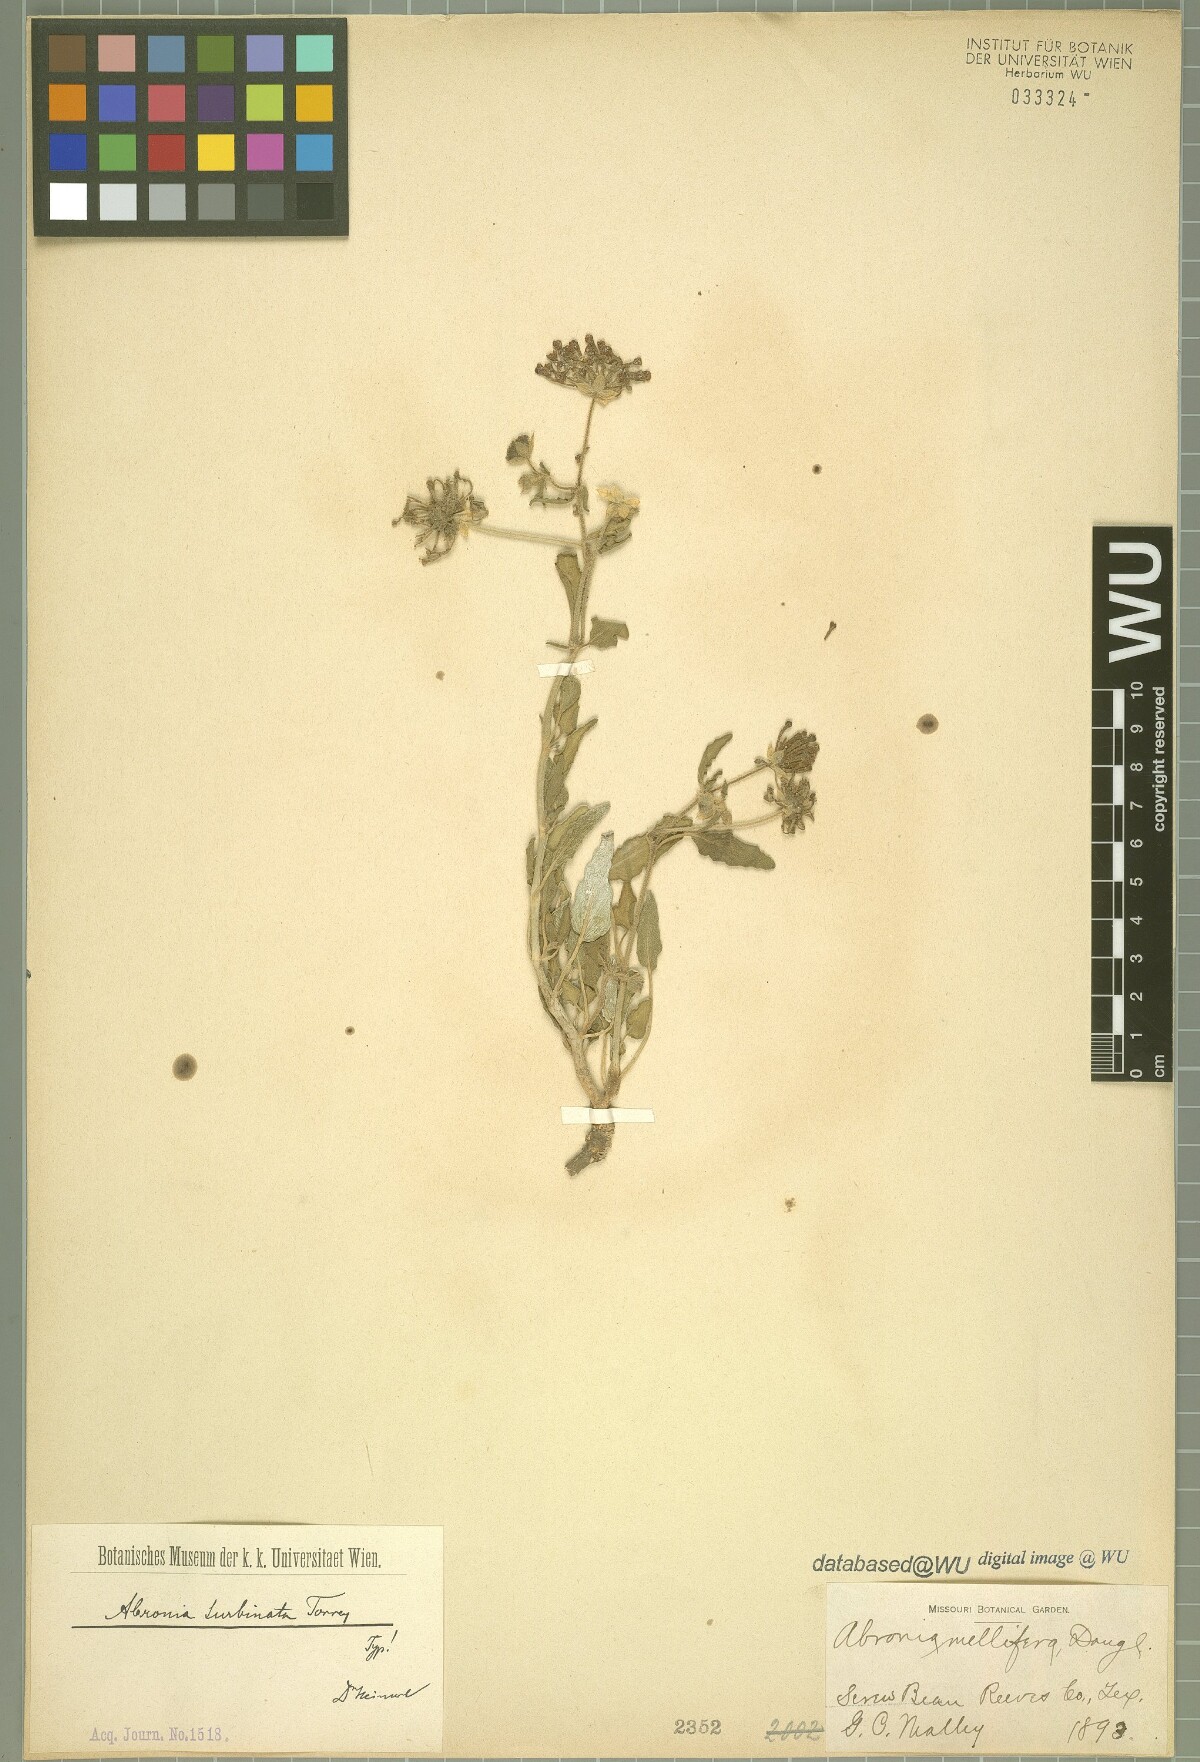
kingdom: Plantae
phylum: Tracheophyta
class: Magnoliopsida
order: Caryophyllales
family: Nyctaginaceae
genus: Abronia
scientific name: Abronia turbinata
